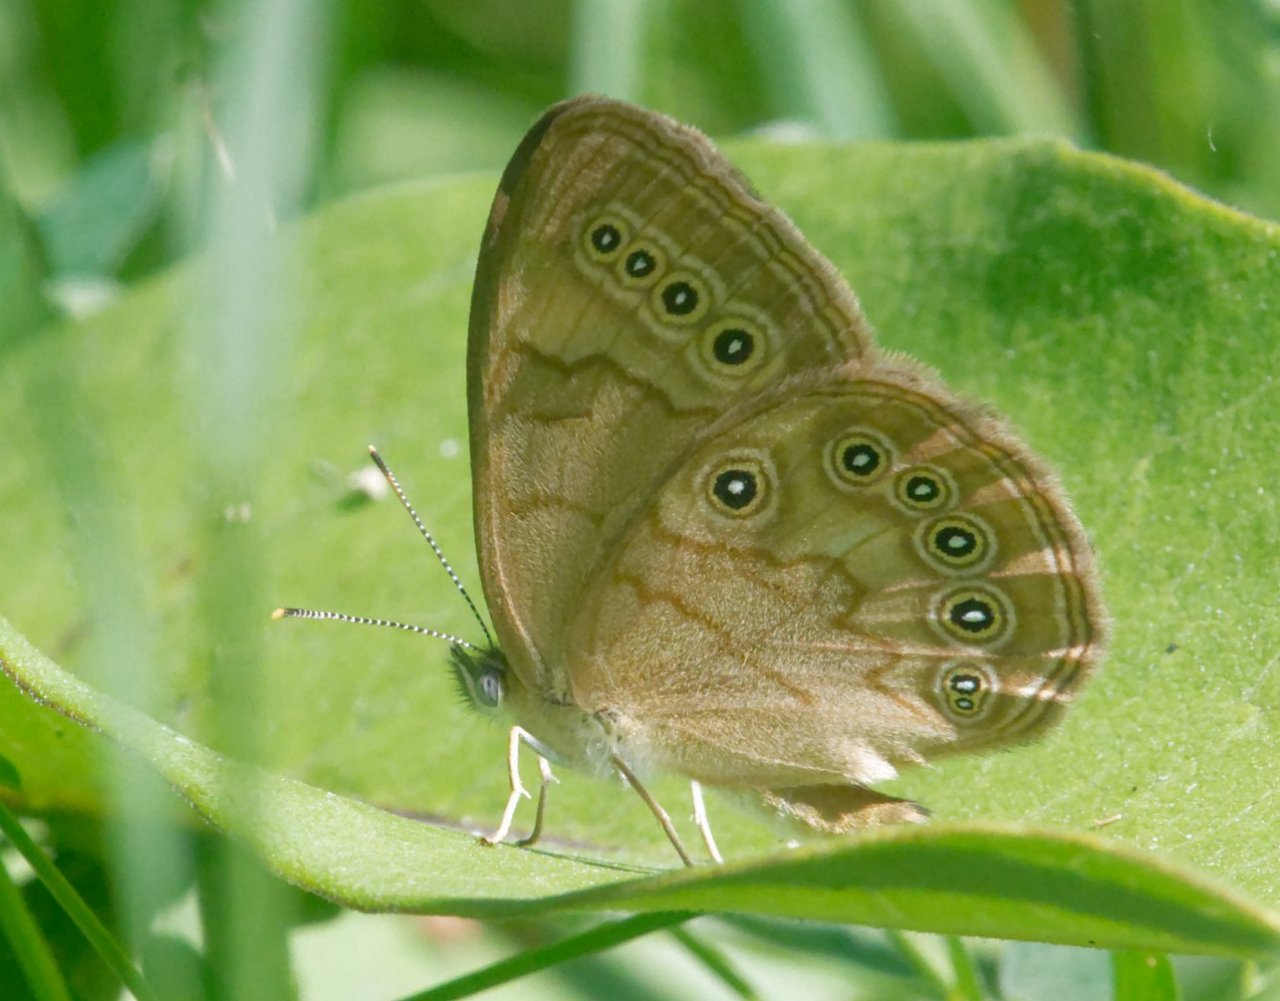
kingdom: Animalia
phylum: Arthropoda
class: Insecta
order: Lepidoptera
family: Nymphalidae
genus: Lethe
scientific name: Lethe eurydice
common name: Eyed Brown
